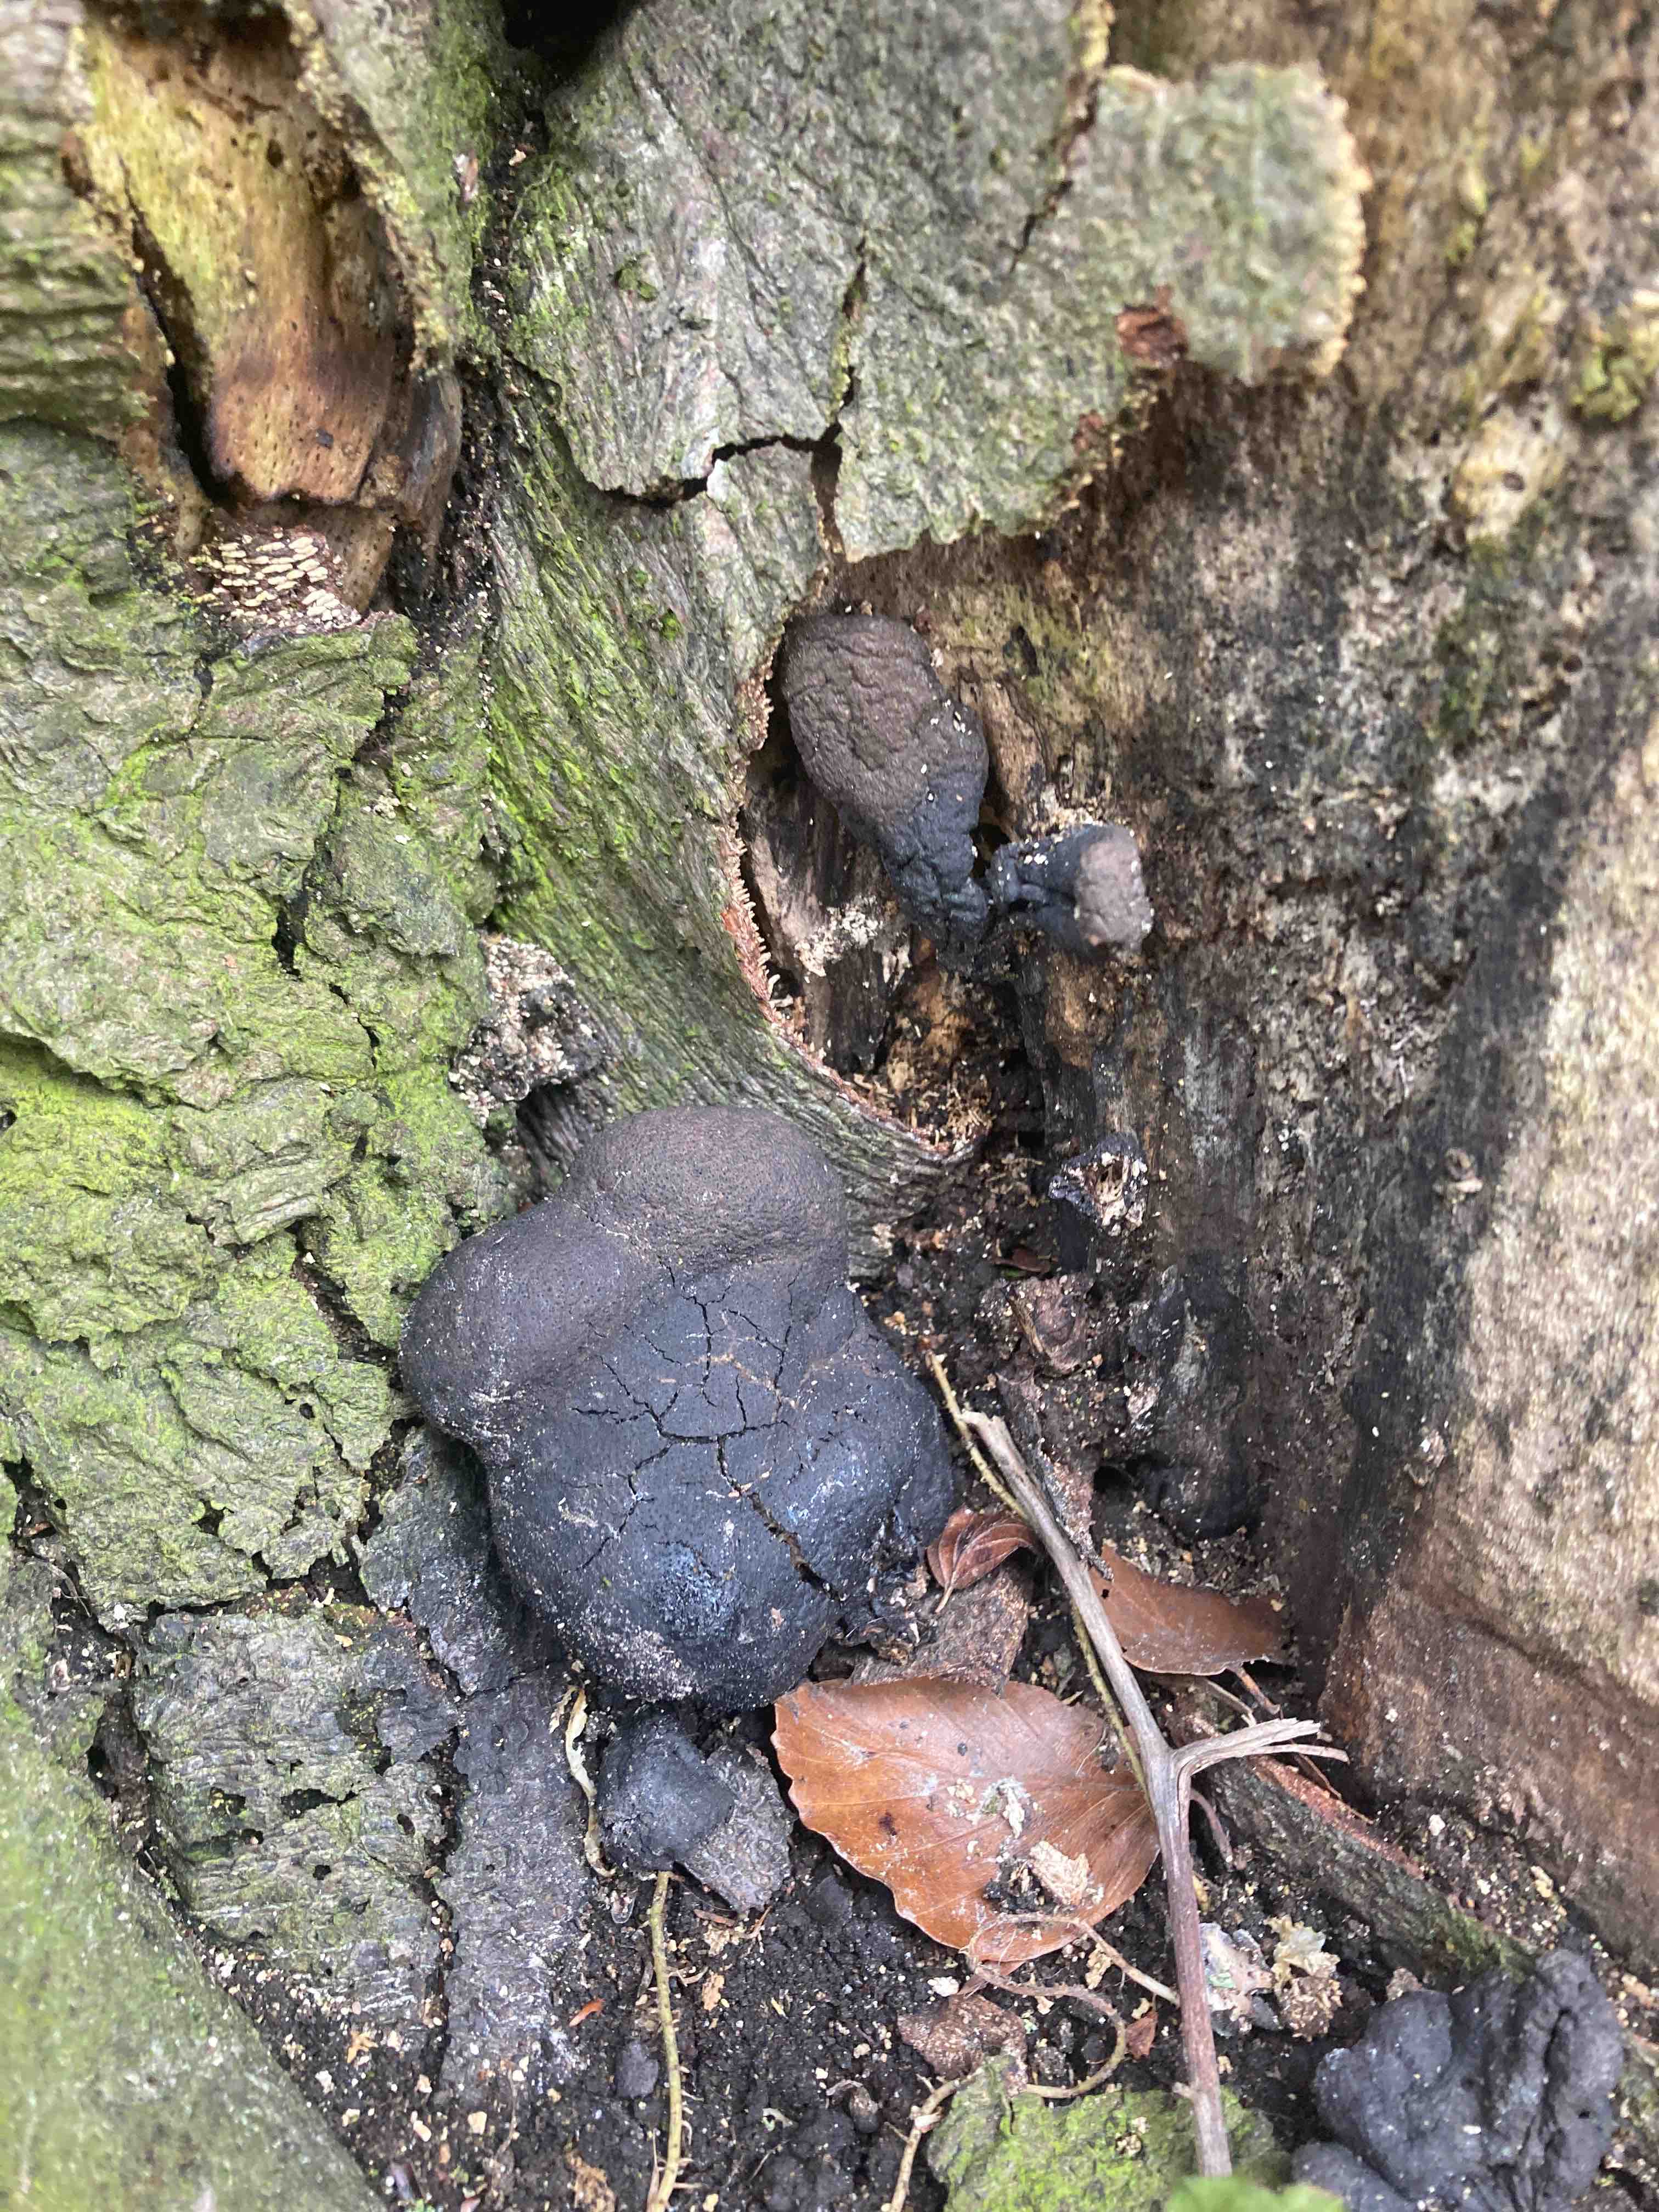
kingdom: Fungi
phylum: Ascomycota
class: Sordariomycetes
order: Xylariales
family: Xylariaceae
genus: Xylaria
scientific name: Xylaria polymorpha
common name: kølle-stødsvamp
